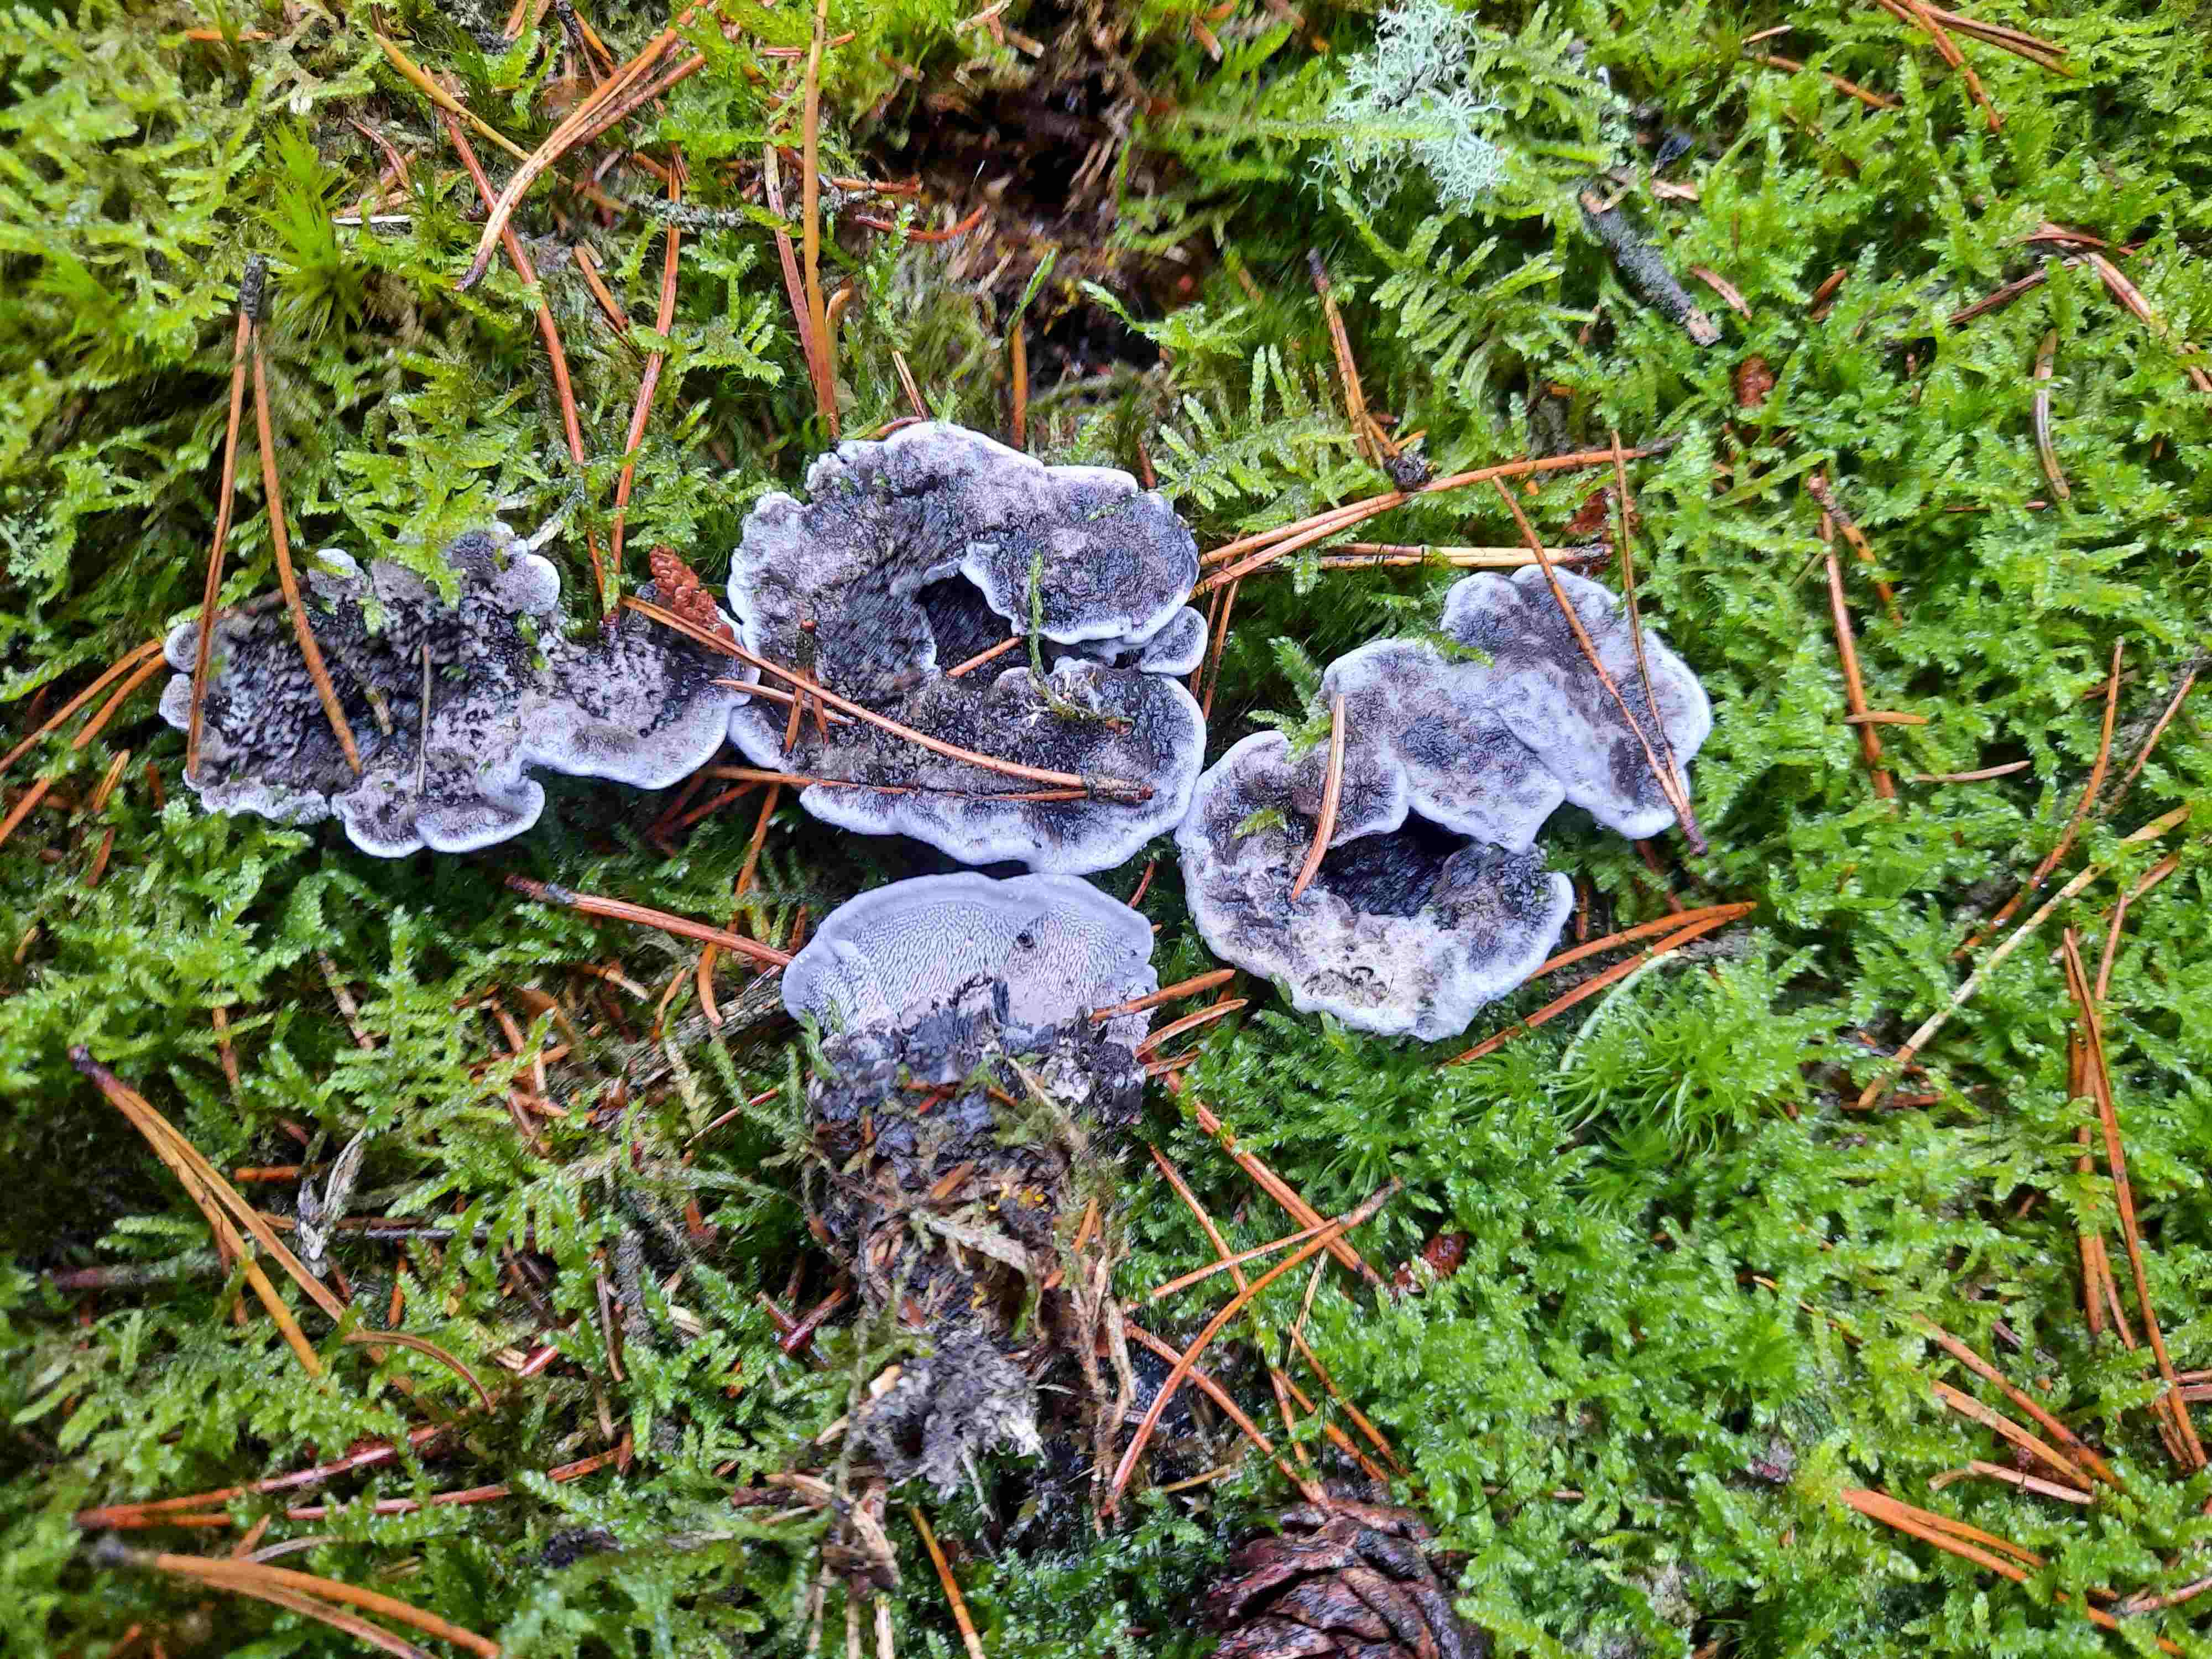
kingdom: Fungi
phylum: Basidiomycota
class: Agaricomycetes
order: Thelephorales
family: Thelephoraceae
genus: Phellodon
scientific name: Phellodon
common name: mørk duftpigsvamp
